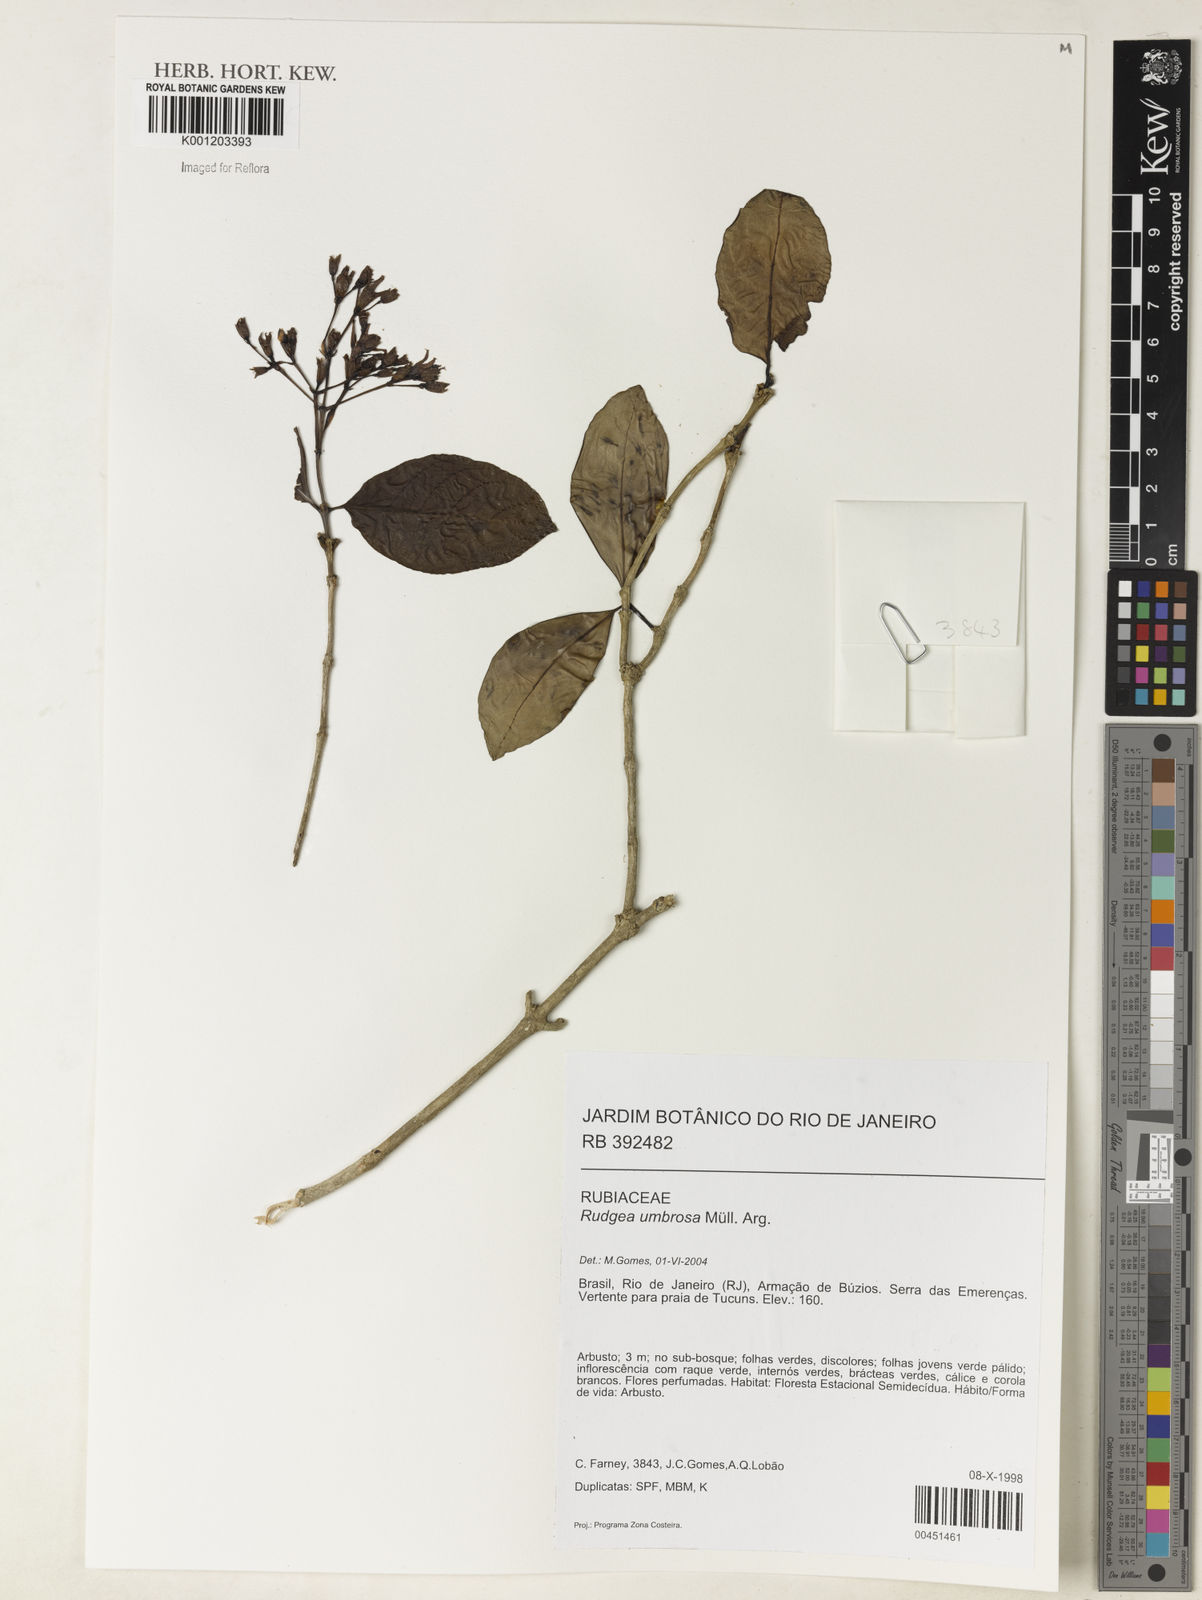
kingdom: Plantae
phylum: Tracheophyta
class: Magnoliopsida
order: Gentianales
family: Rubiaceae
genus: Rudgea
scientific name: Rudgea
